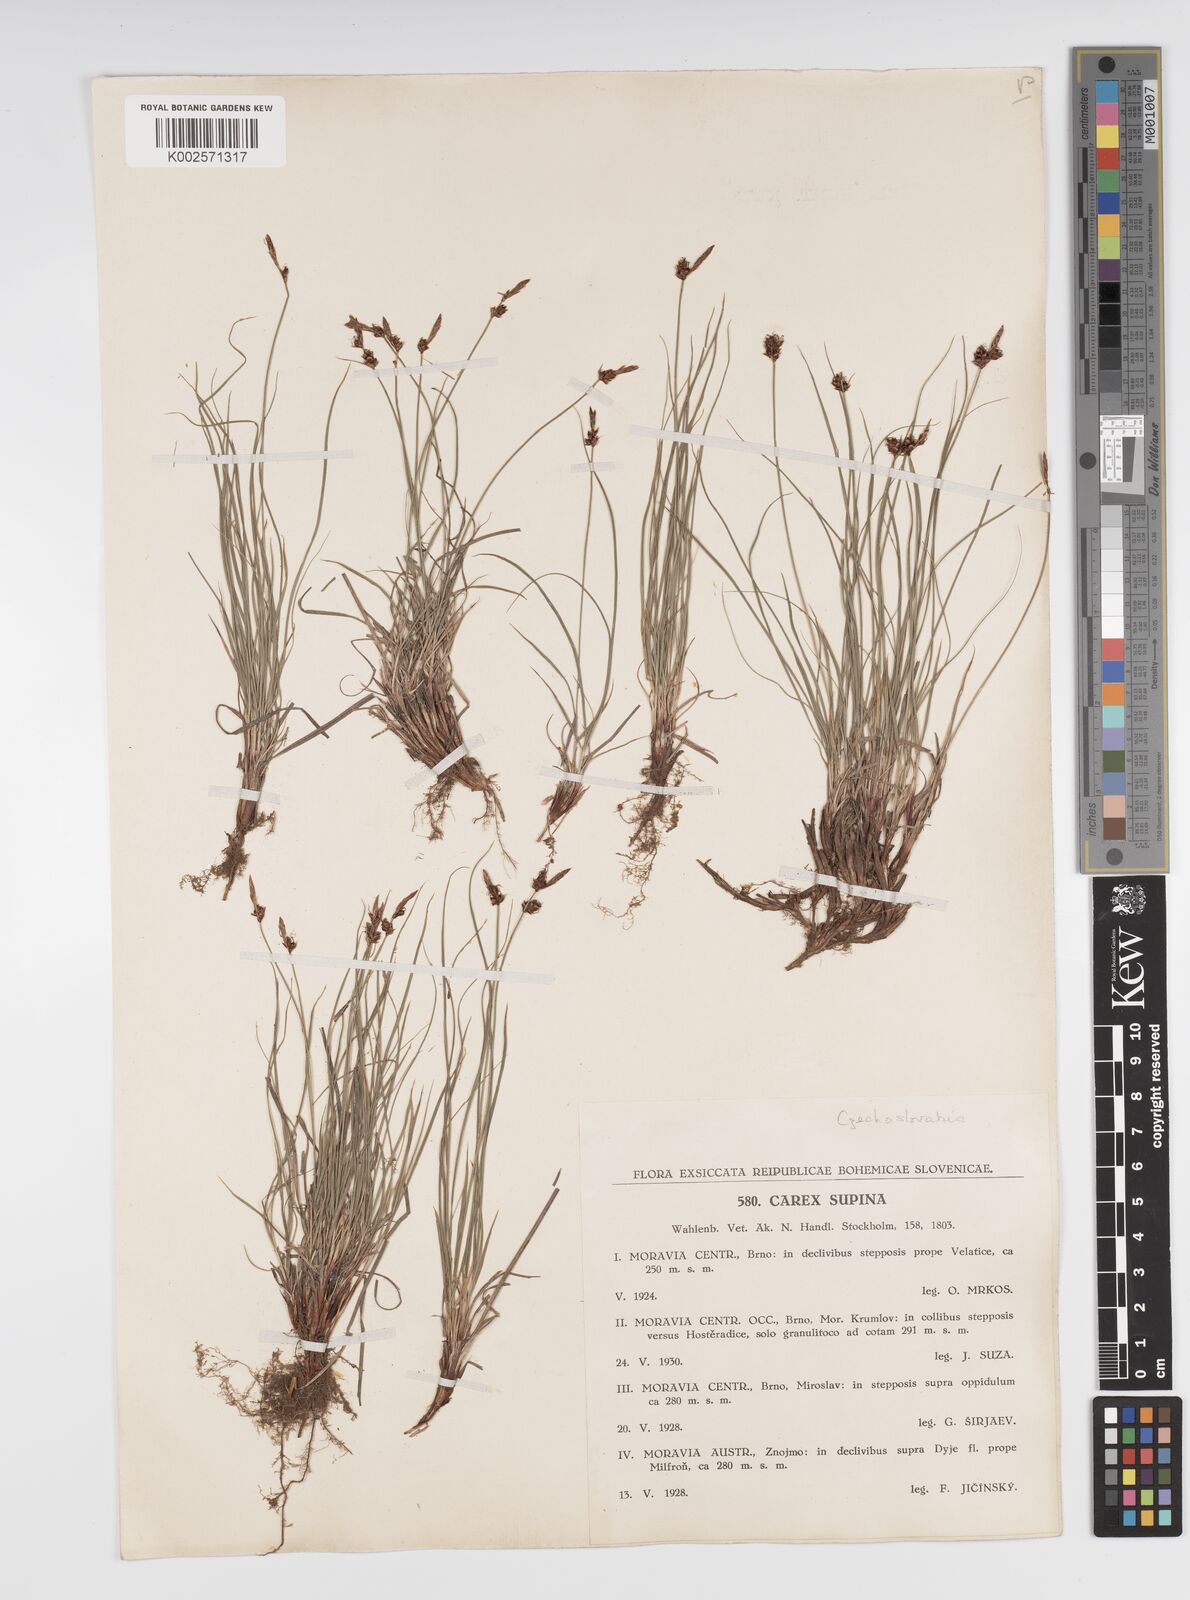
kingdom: Plantae
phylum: Tracheophyta
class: Liliopsida
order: Poales
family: Cyperaceae
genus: Carex
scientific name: Carex supina
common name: Lying-back sedge
